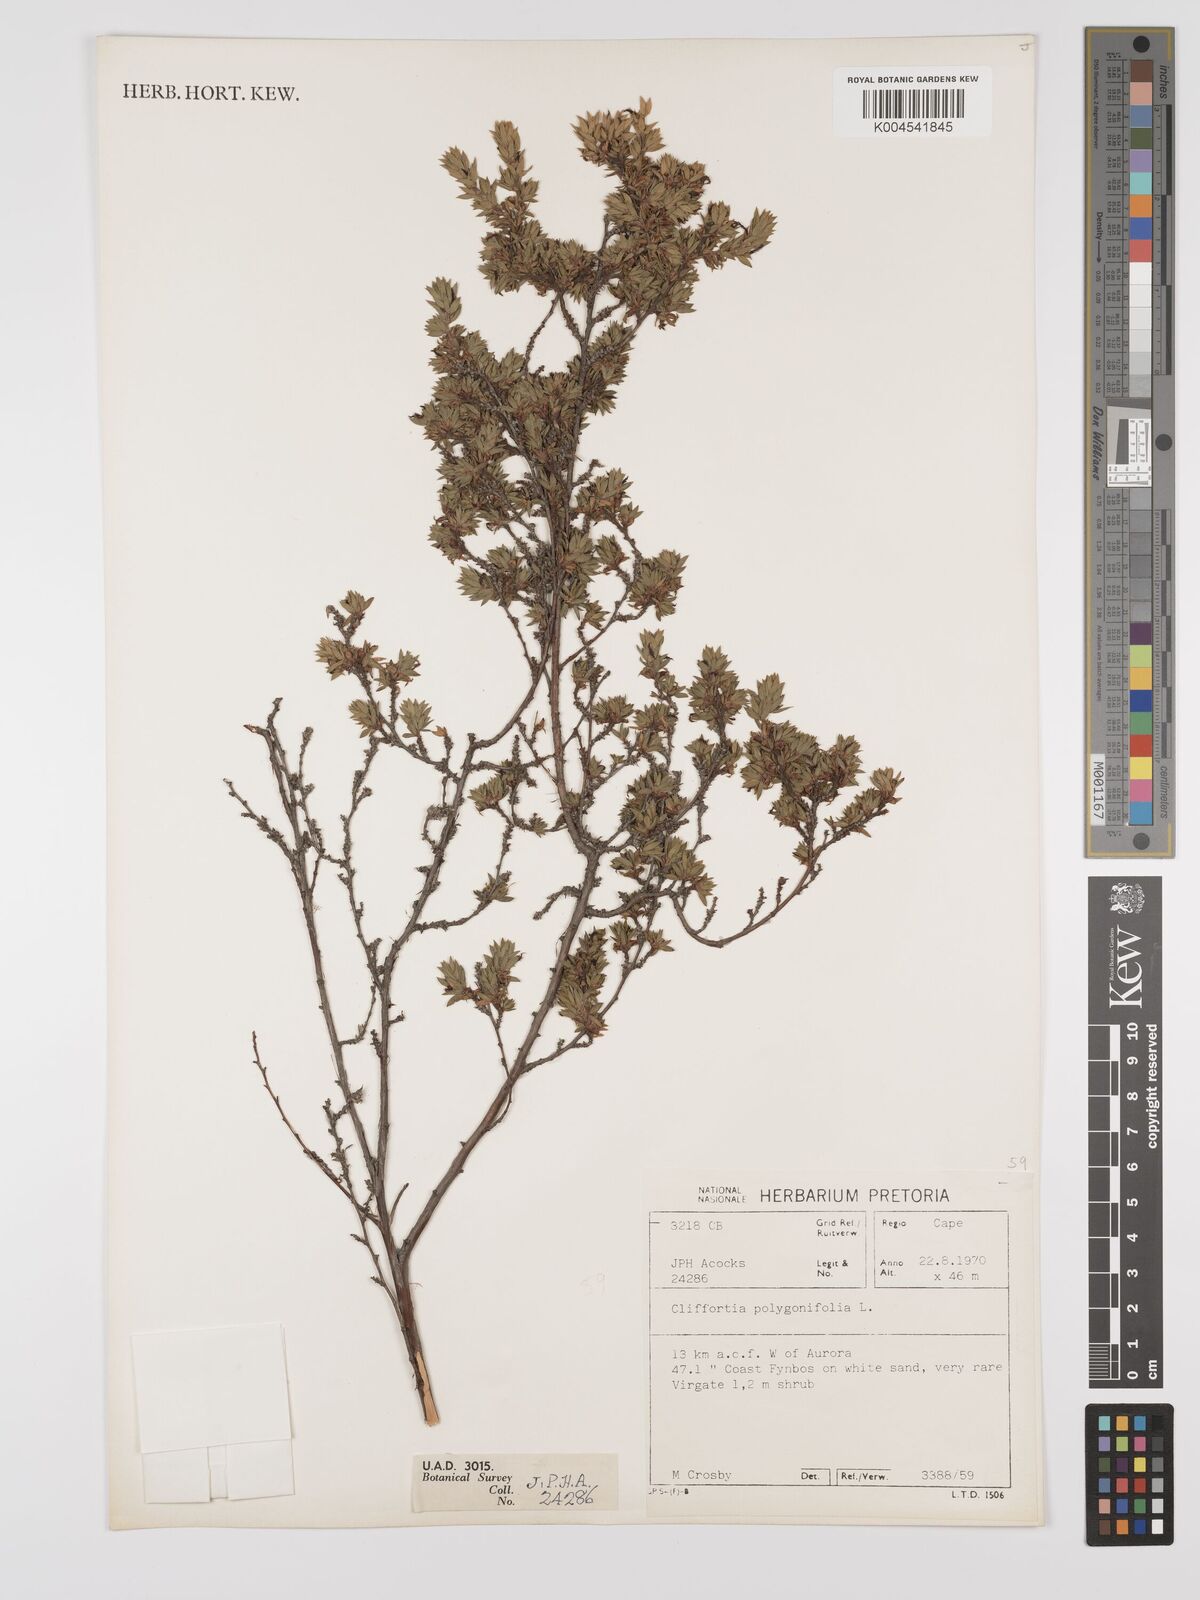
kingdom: Plantae
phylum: Tracheophyta
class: Magnoliopsida
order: Rosales
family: Rosaceae
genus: Cliffortia
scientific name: Cliffortia polygonifolia
